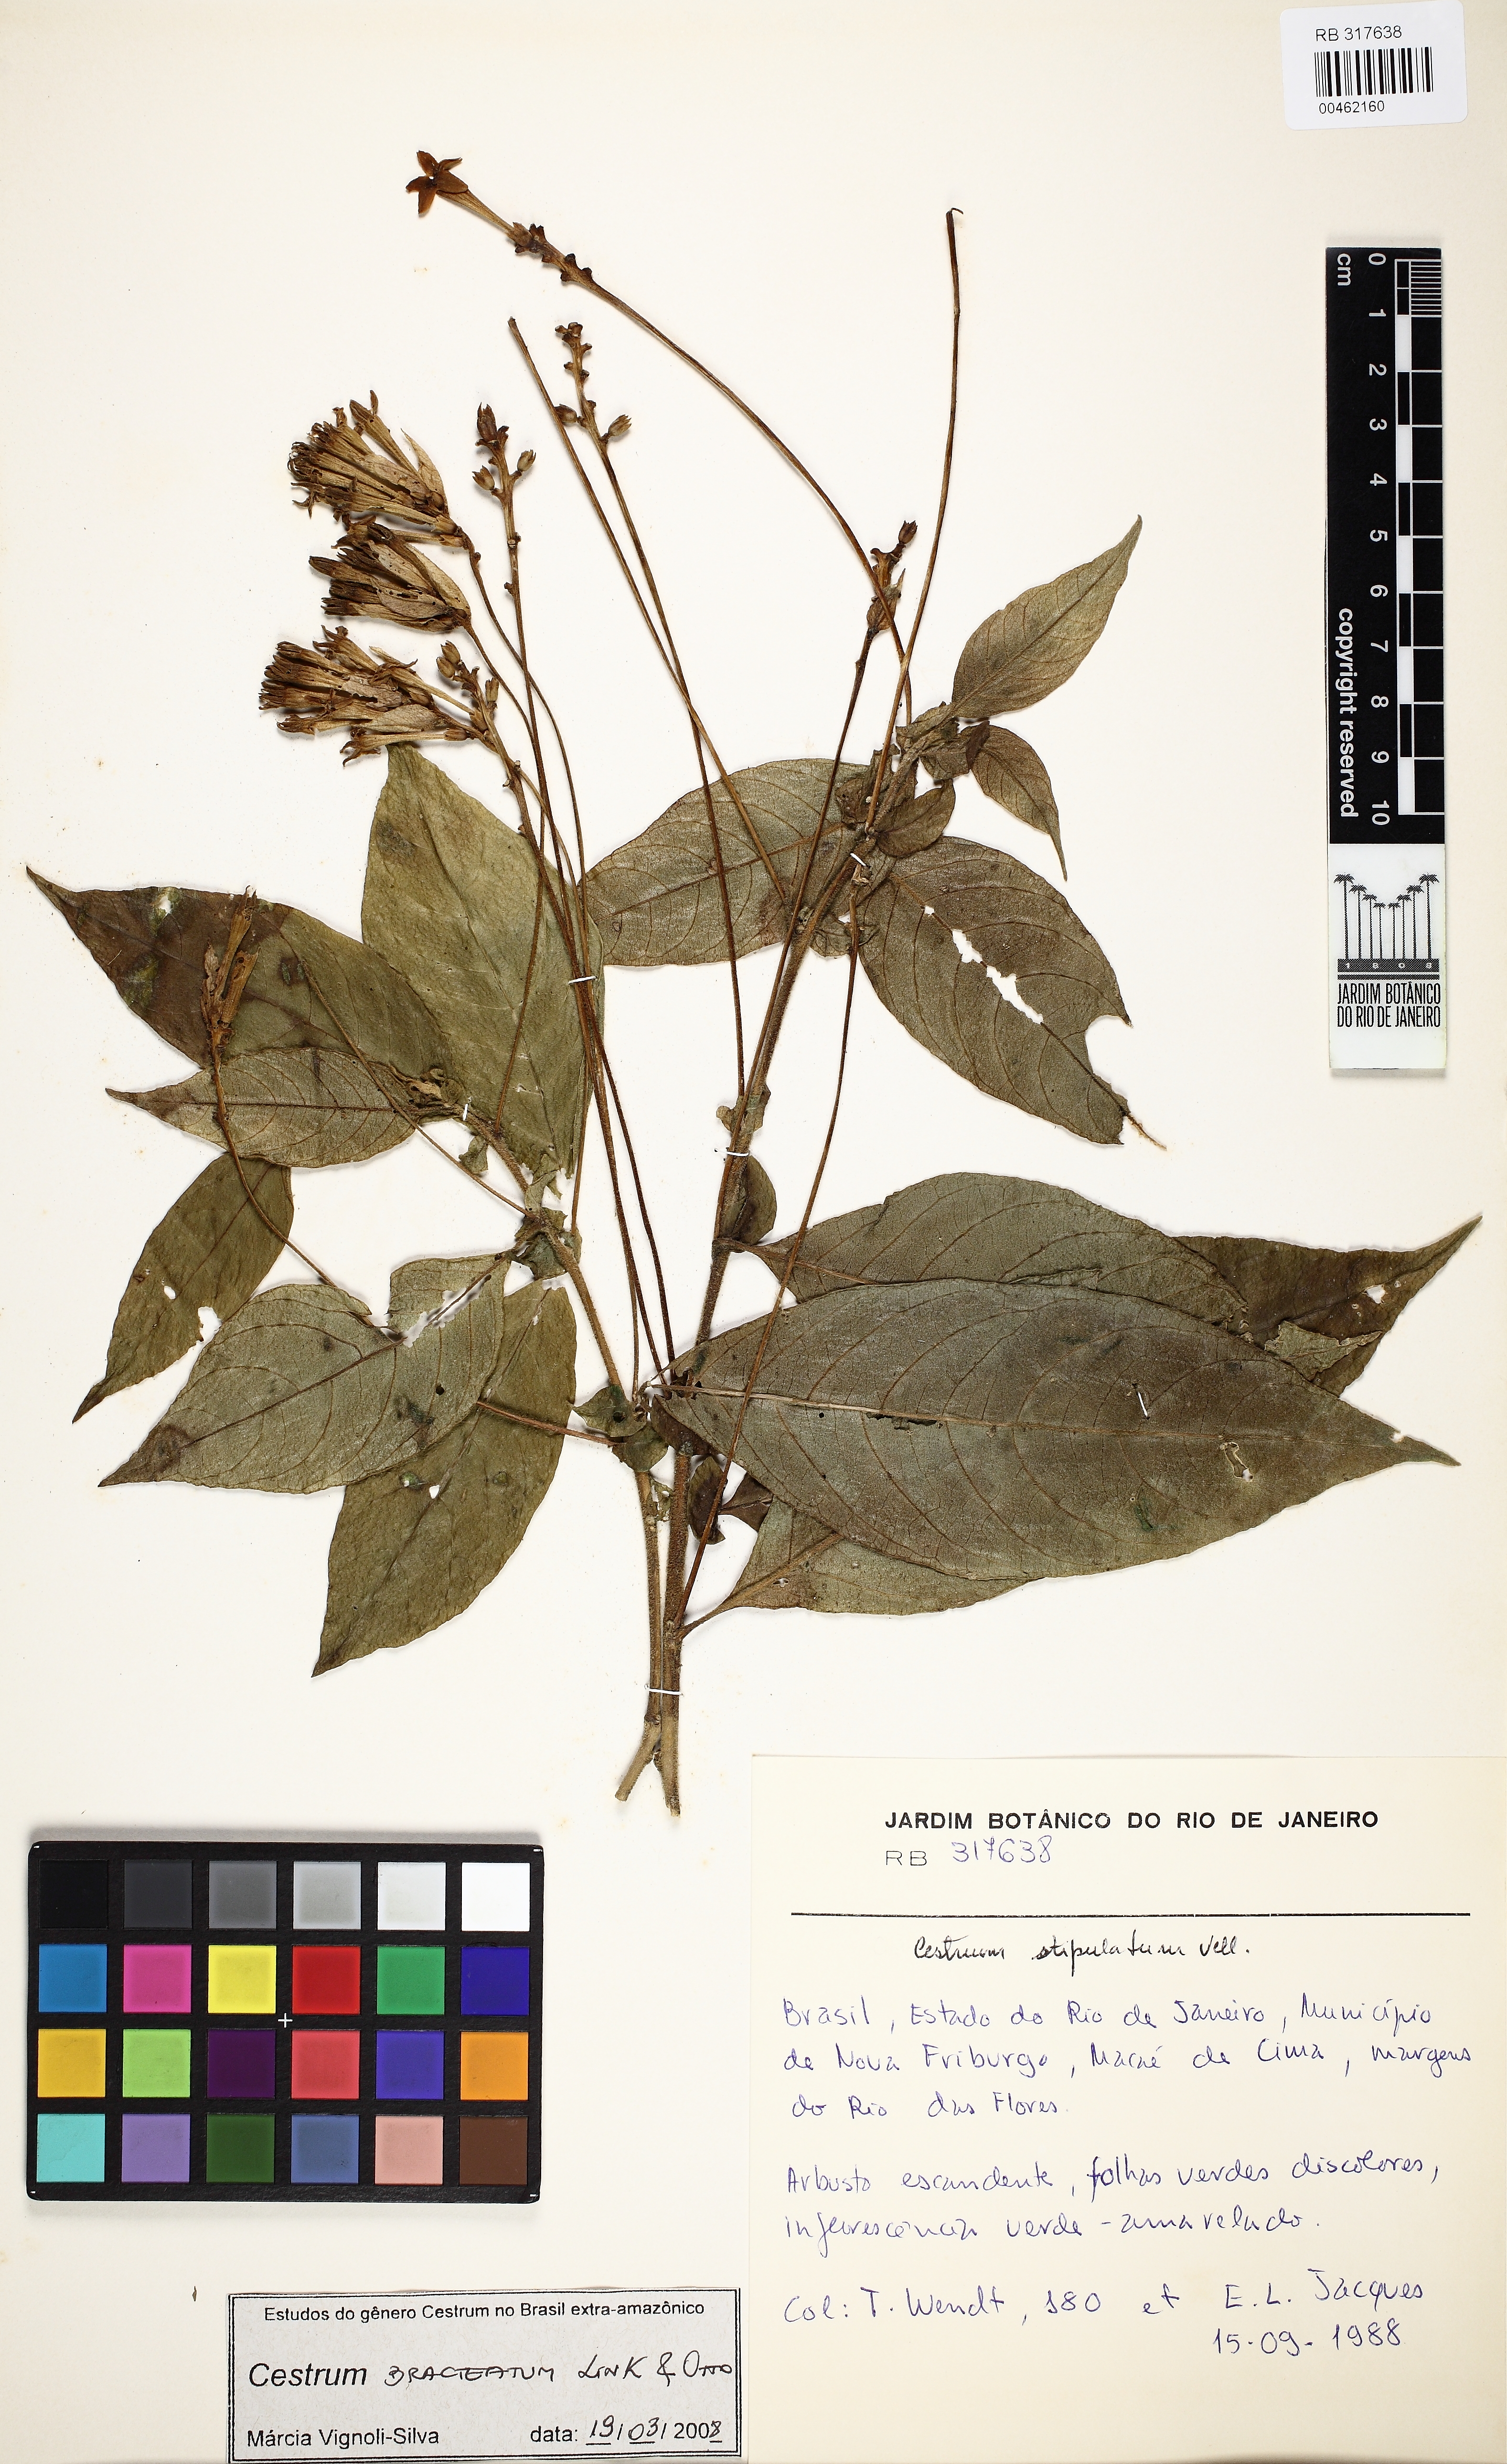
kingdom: Plantae
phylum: Tracheophyta
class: Magnoliopsida
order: Solanales
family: Solanaceae
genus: Cestrum
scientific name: Cestrum bracteatum
